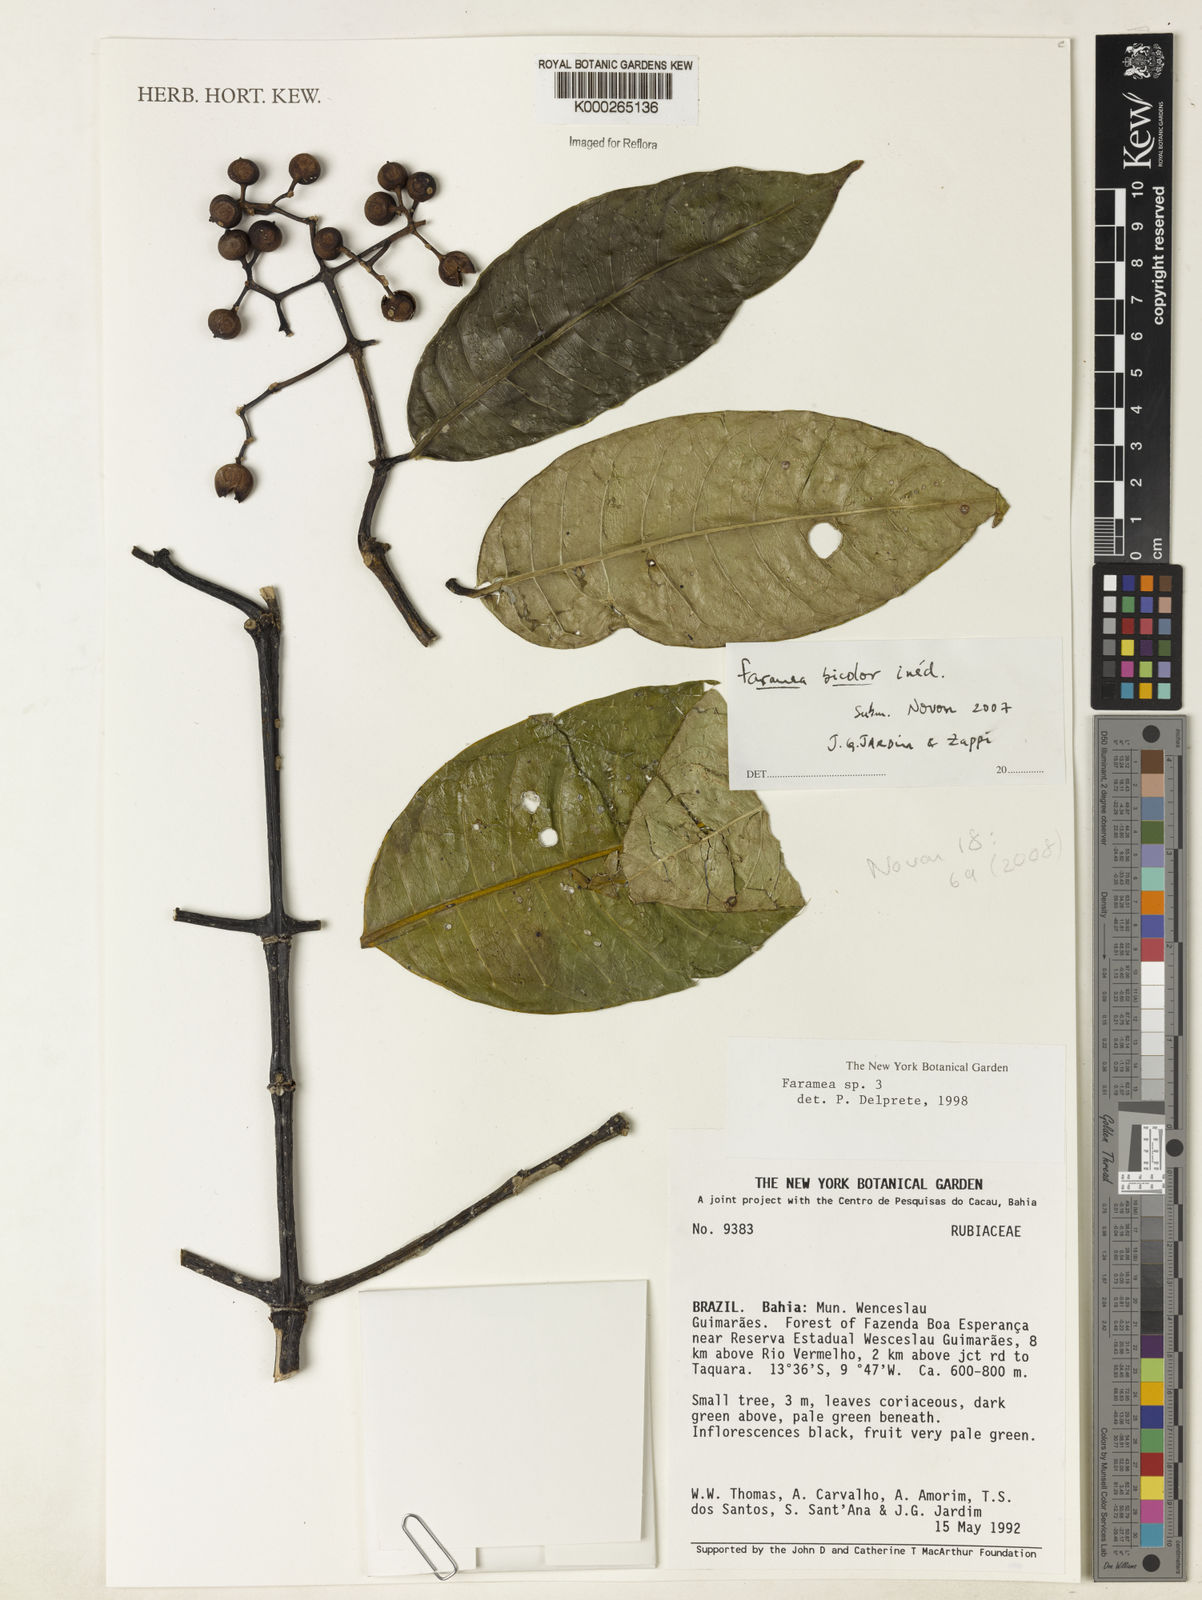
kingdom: Plantae
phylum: Tracheophyta
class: Magnoliopsida
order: Gentianales
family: Rubiaceae
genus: Faramea
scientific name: Faramea
